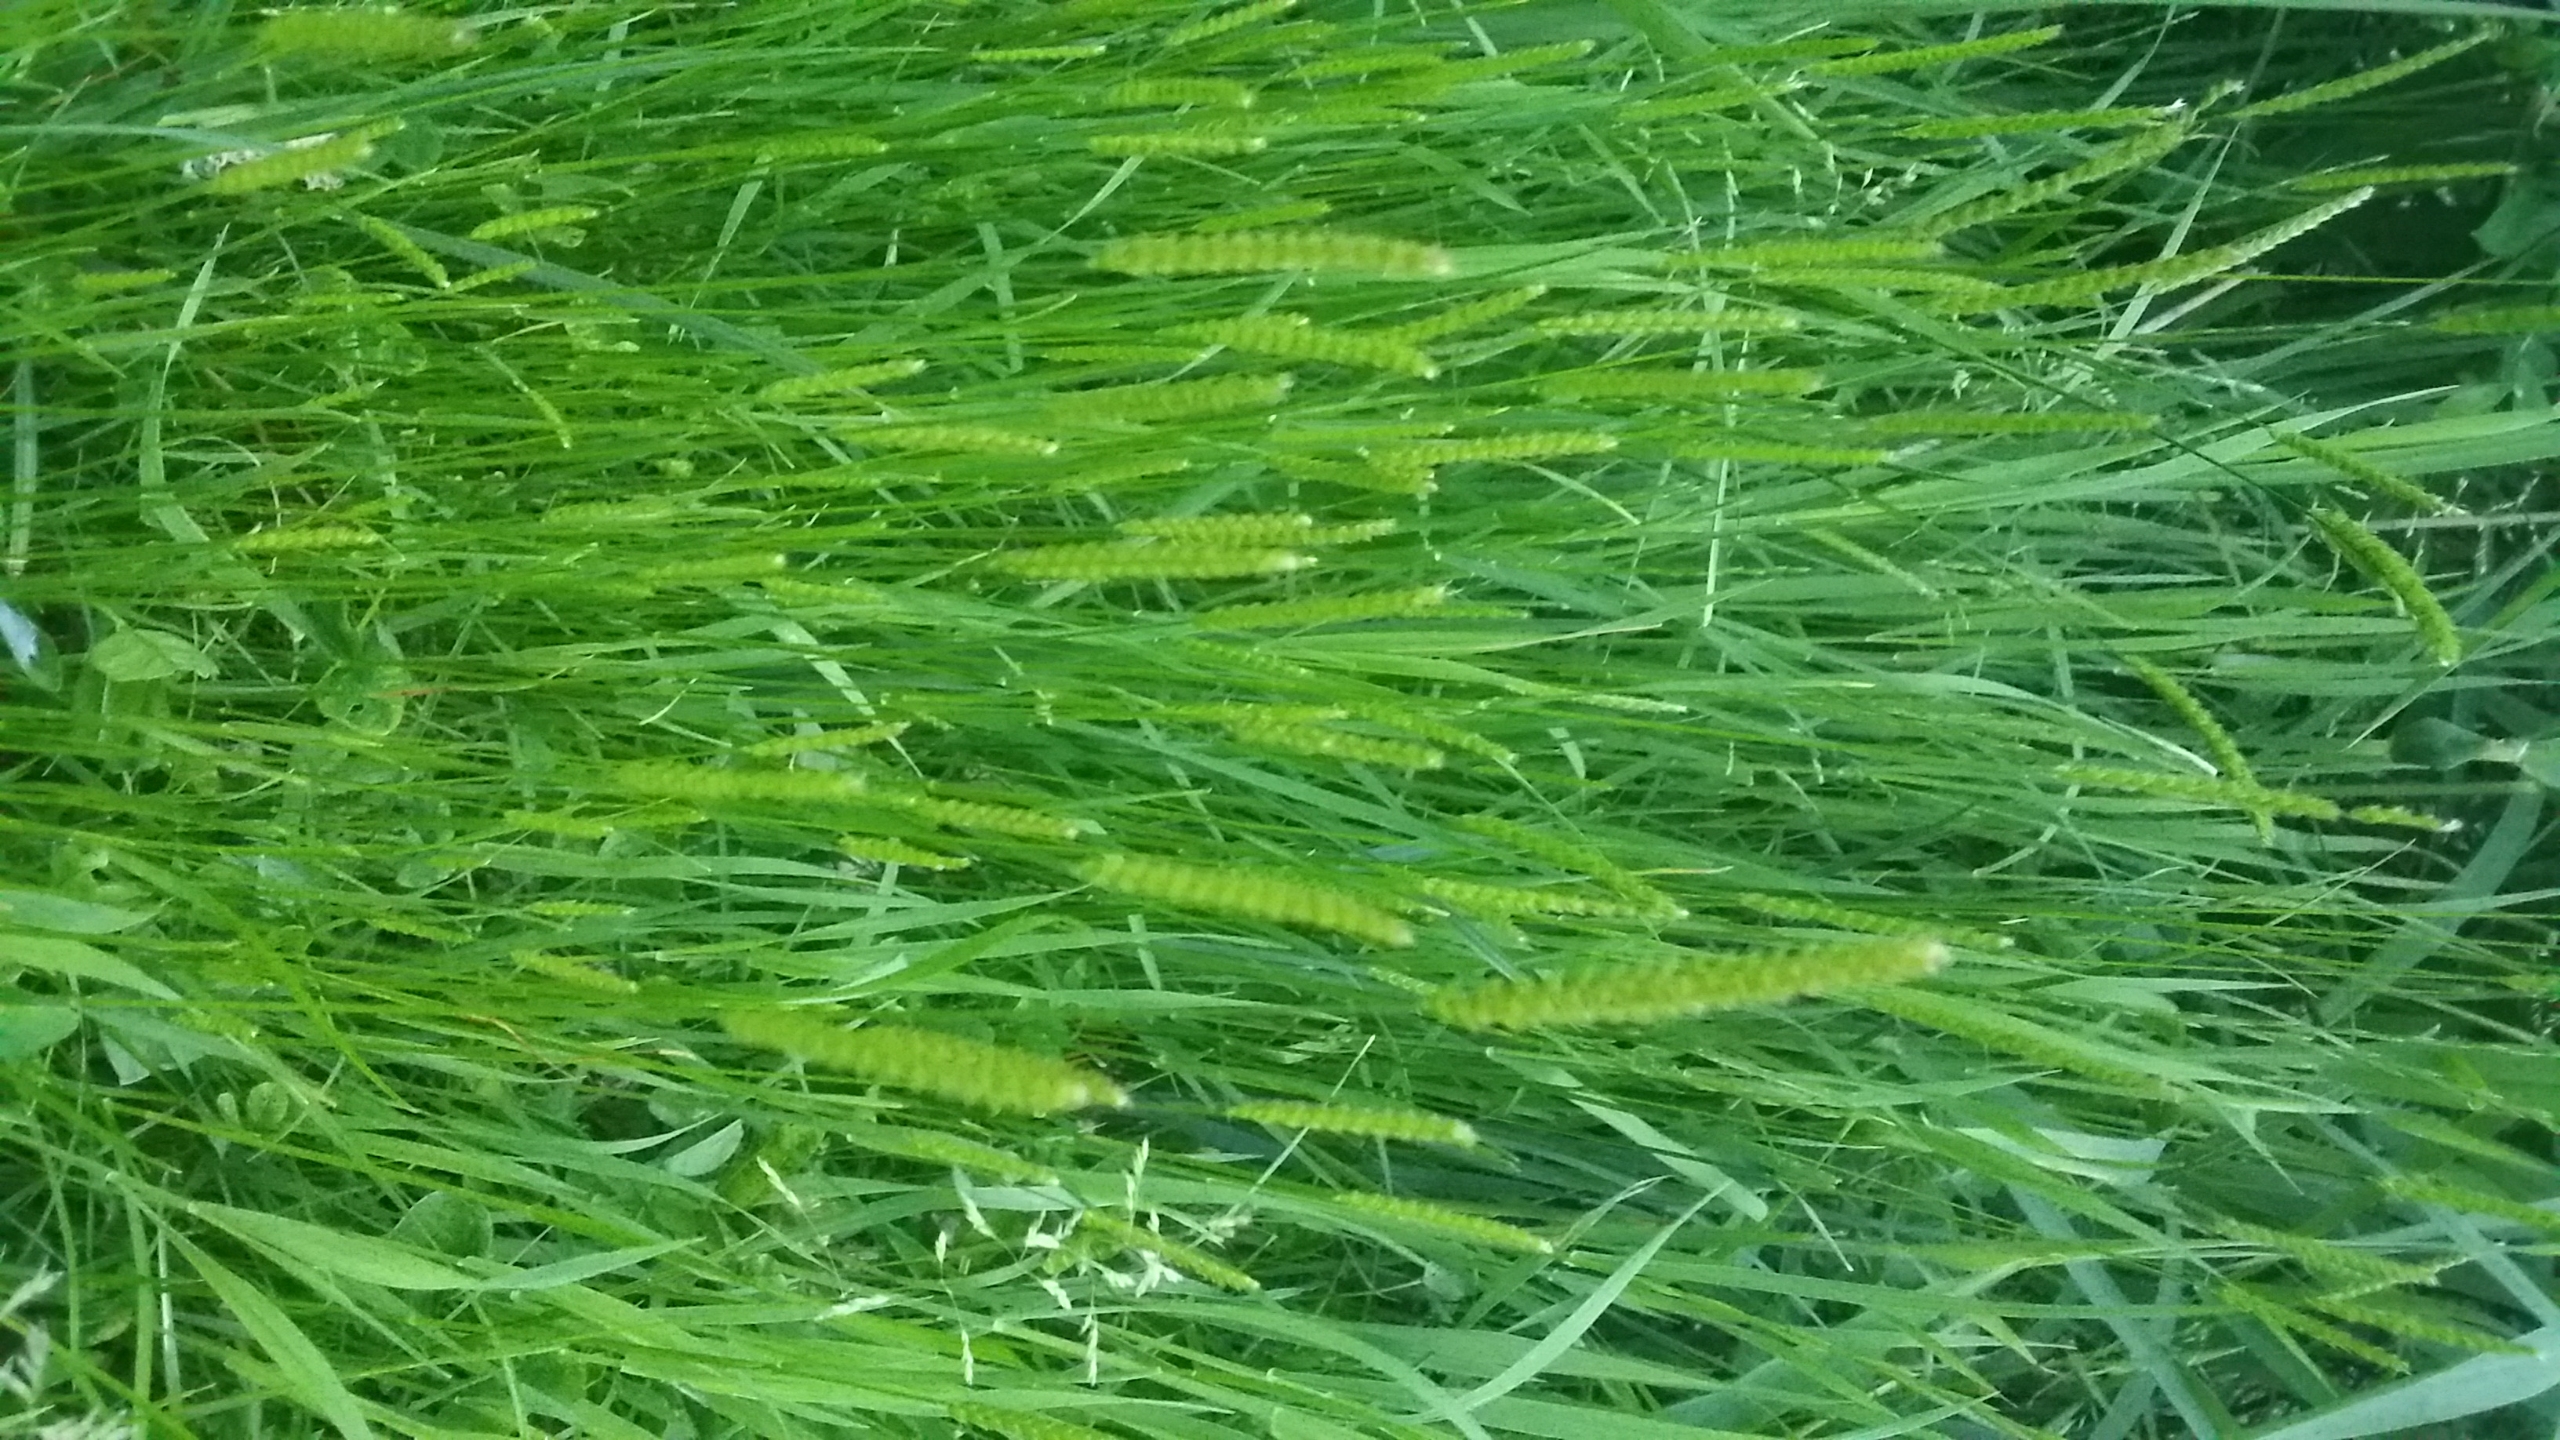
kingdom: Plantae
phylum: Tracheophyta
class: Liliopsida
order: Poales
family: Poaceae
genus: Cynosurus
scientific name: Cynosurus cristatus
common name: Kamgræs
